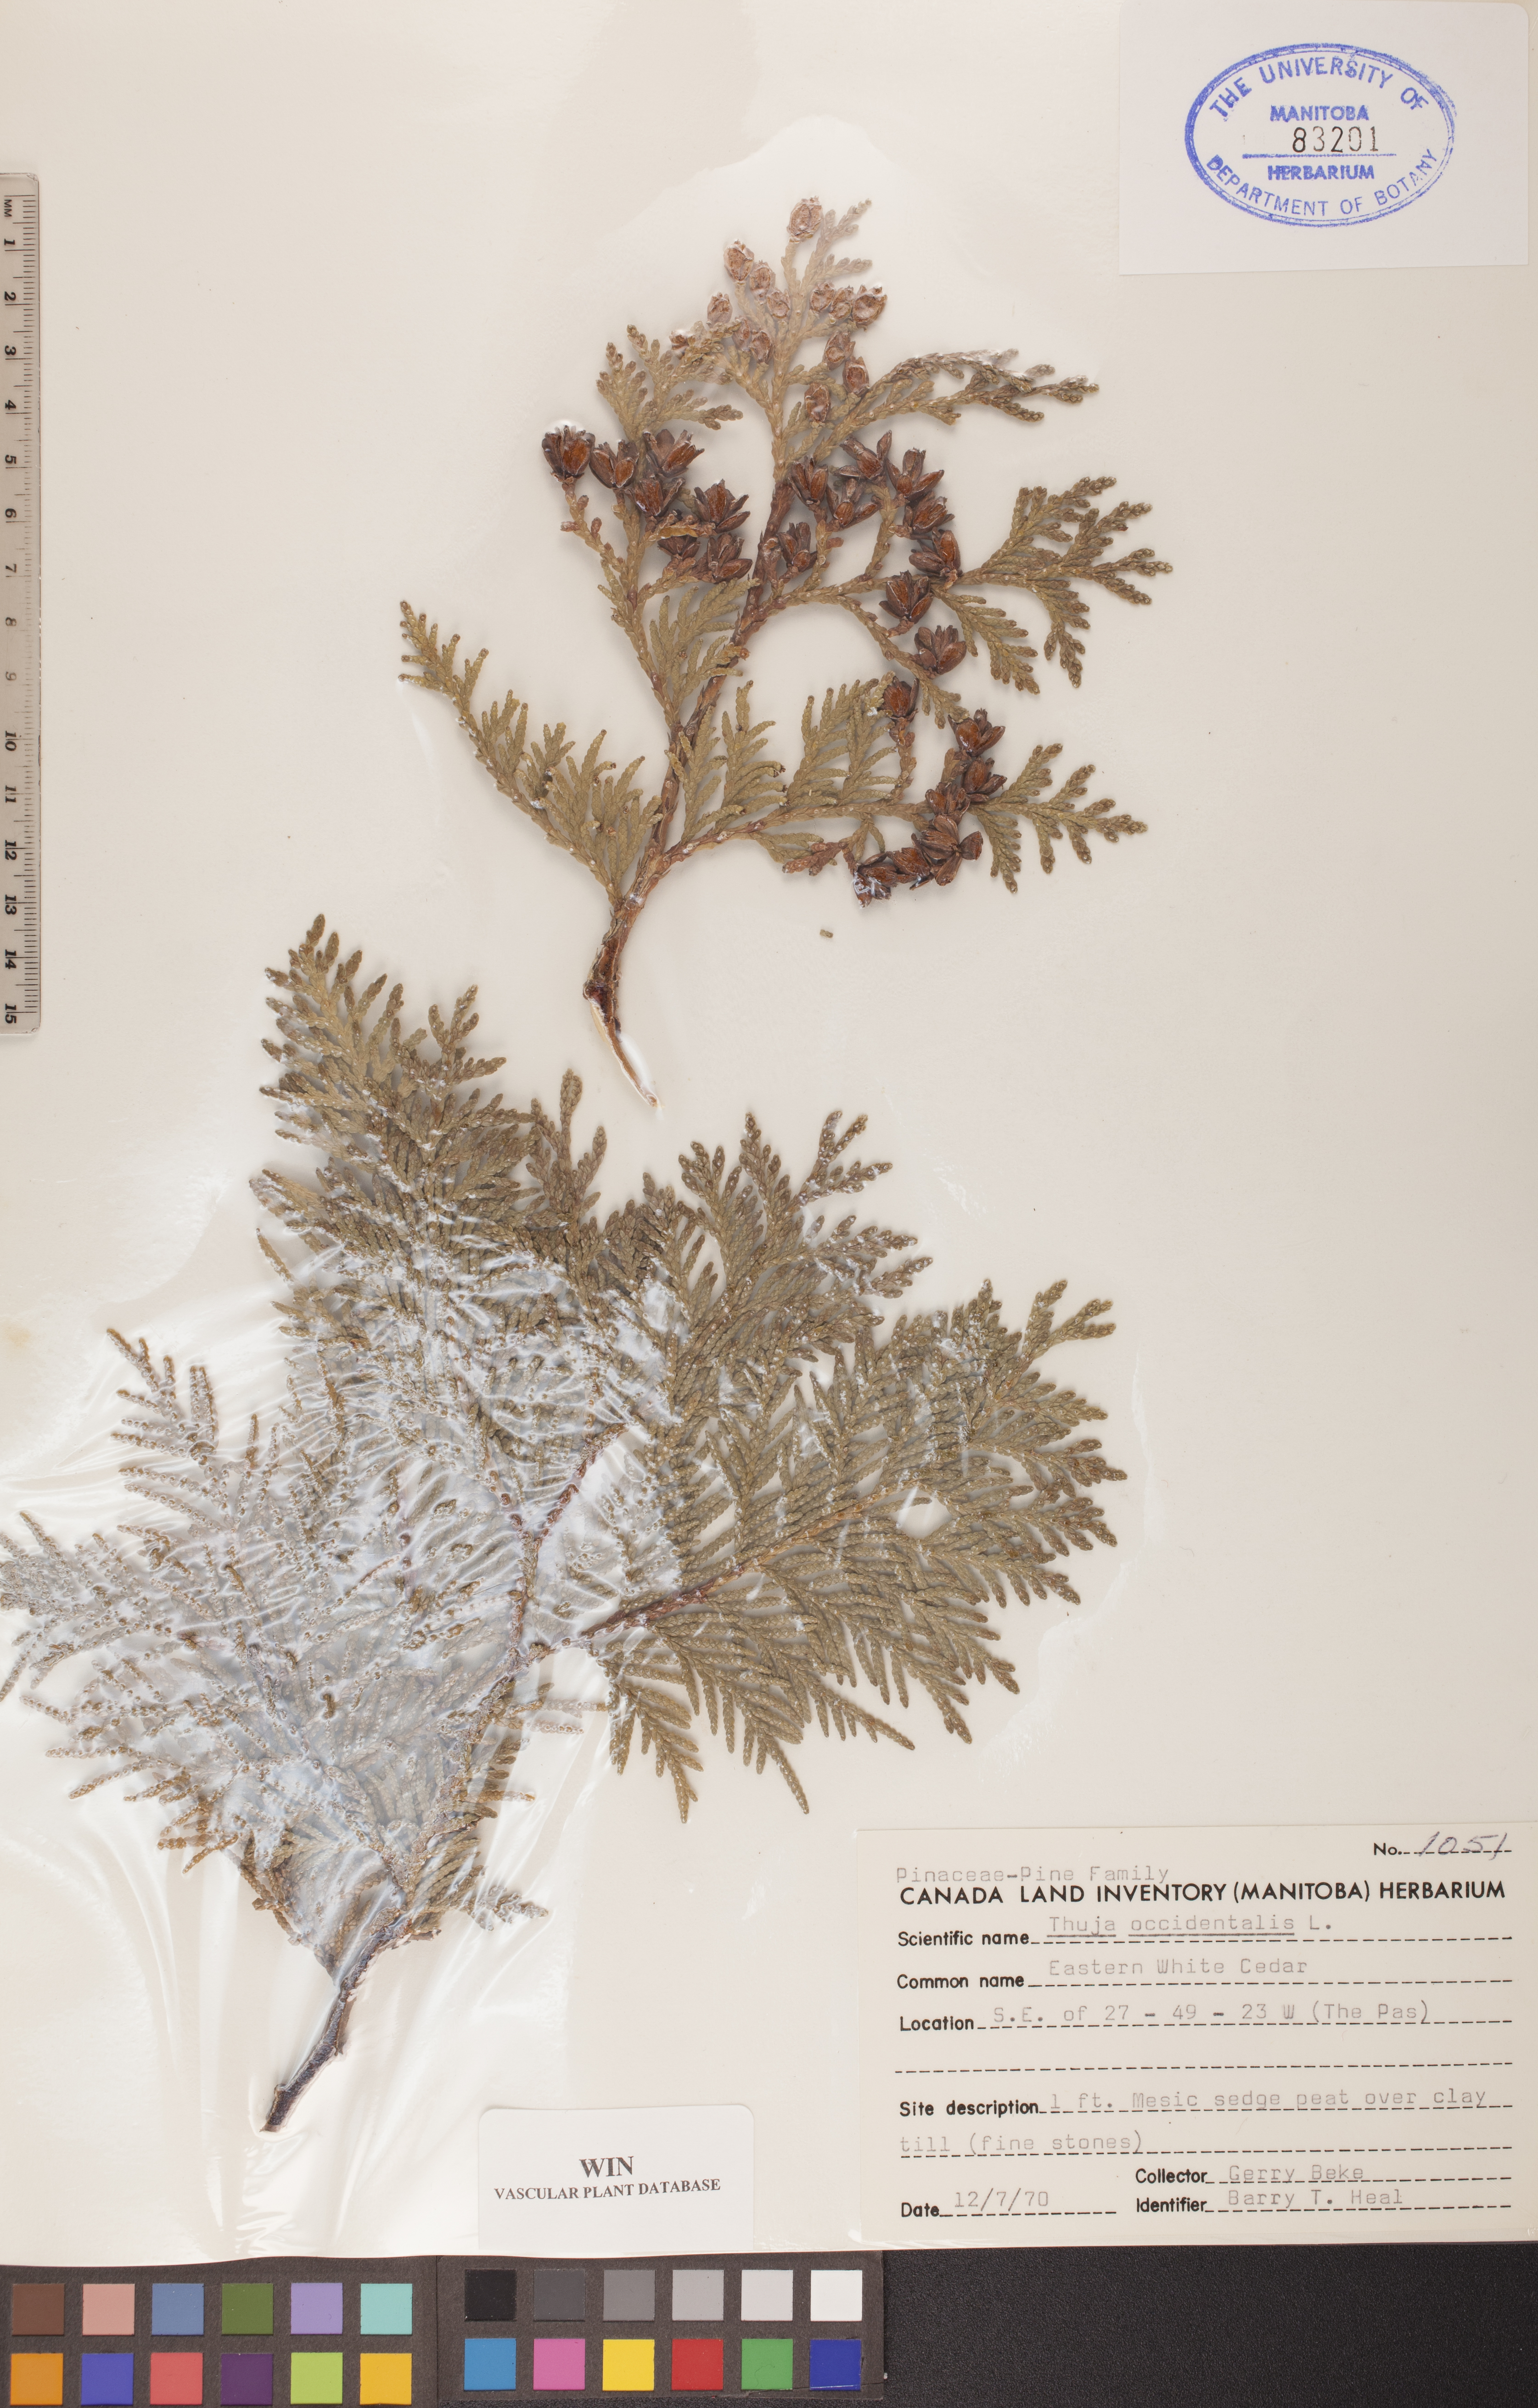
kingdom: Plantae
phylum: Tracheophyta
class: Pinopsida
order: Pinales
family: Cupressaceae
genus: Thuja
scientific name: Thuja occidentalis
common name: Northern white-cedar
